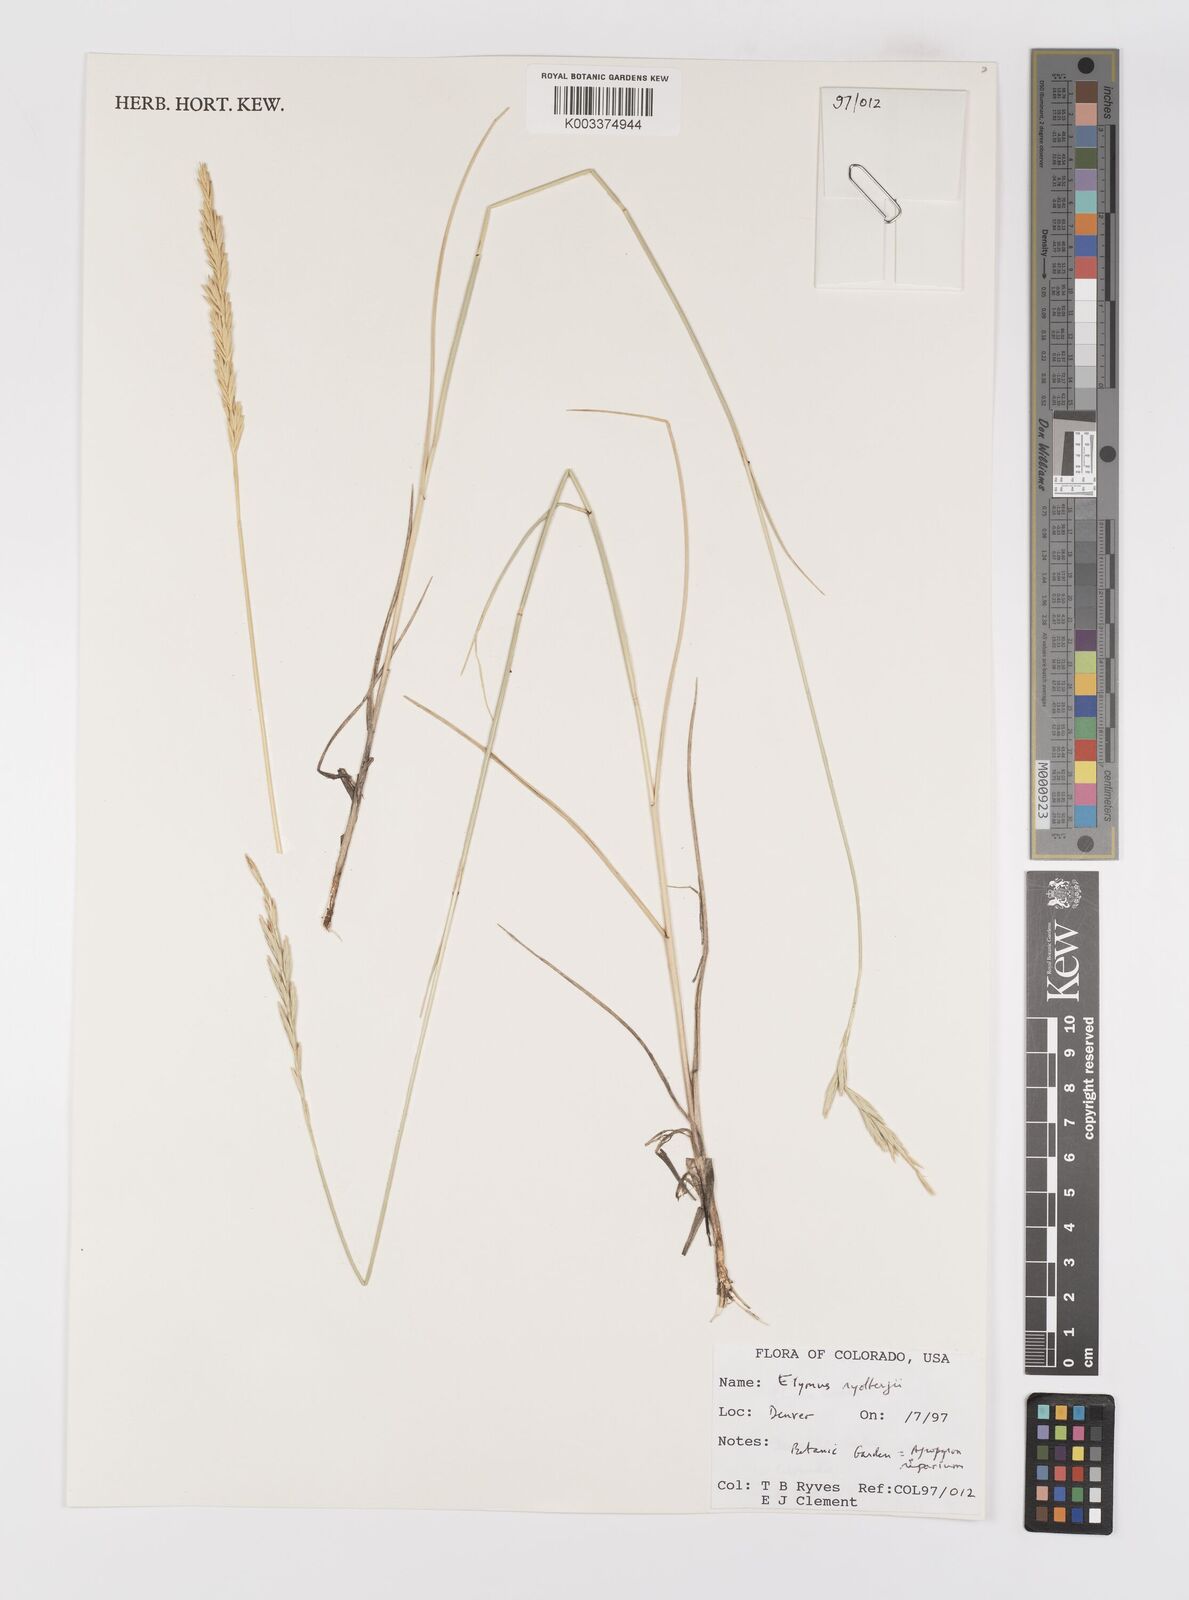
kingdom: Plantae
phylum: Tracheophyta
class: Liliopsida
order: Poales
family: Poaceae
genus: Elymus
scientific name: Elymus lanceolatus
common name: Thick-spike wheatgrass
